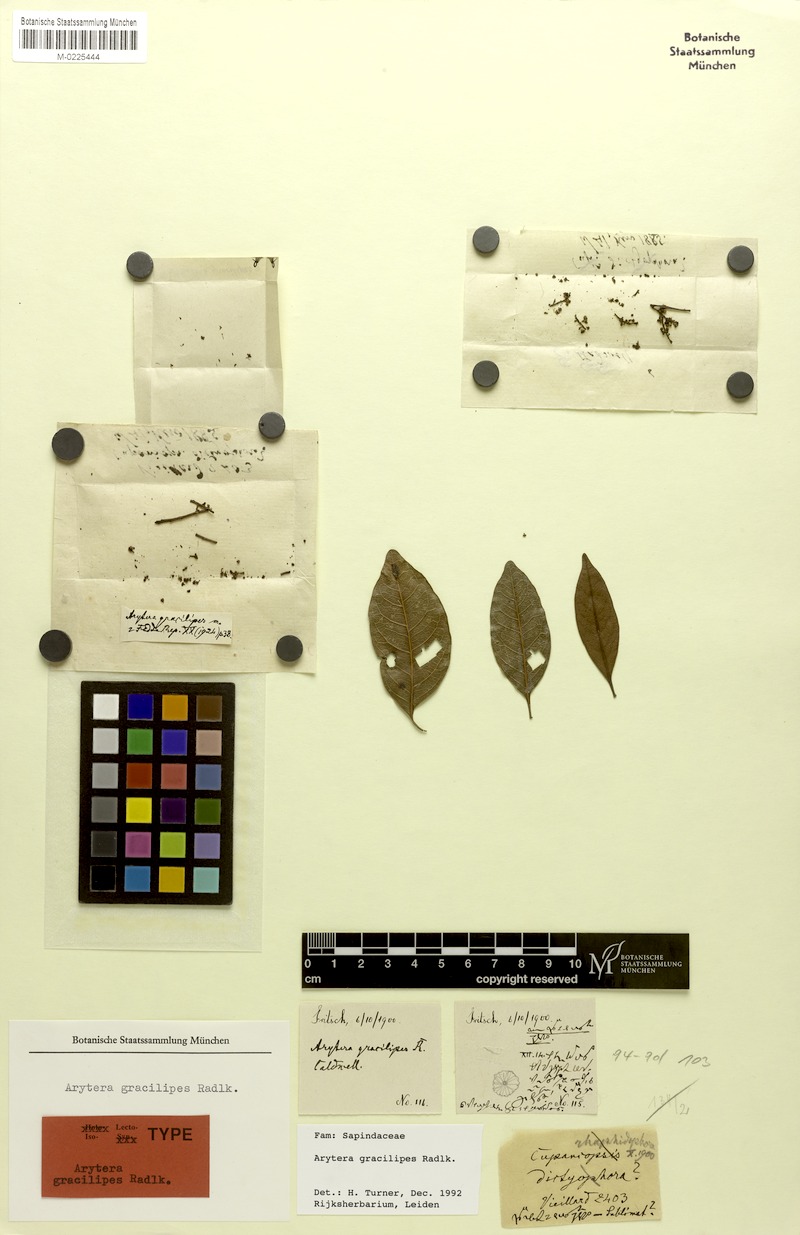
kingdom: Plantae
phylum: Tracheophyta
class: Magnoliopsida
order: Sapindales
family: Sapindaceae
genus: Lepidocupania
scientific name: Lepidocupania gracilipes
